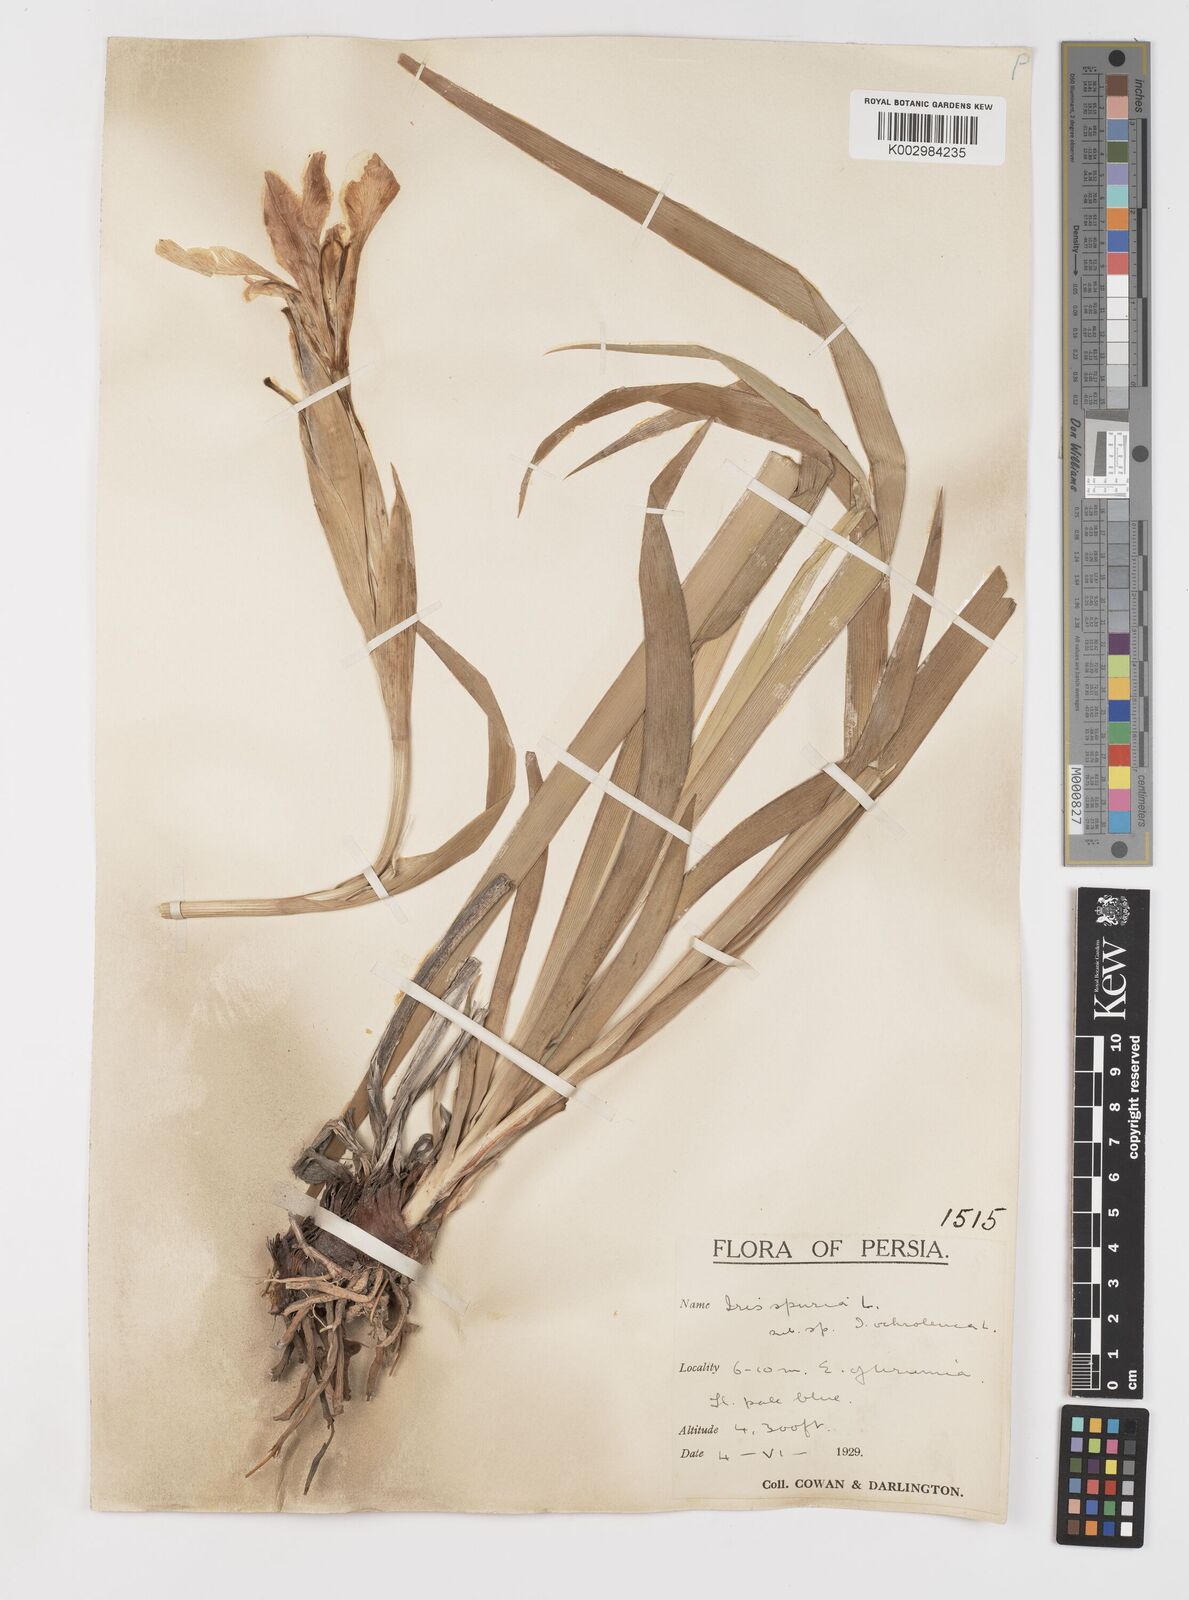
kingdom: Plantae
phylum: Tracheophyta
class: Liliopsida
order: Asparagales
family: Iridaceae
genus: Iris
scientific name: Iris spuria
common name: Blue iris
